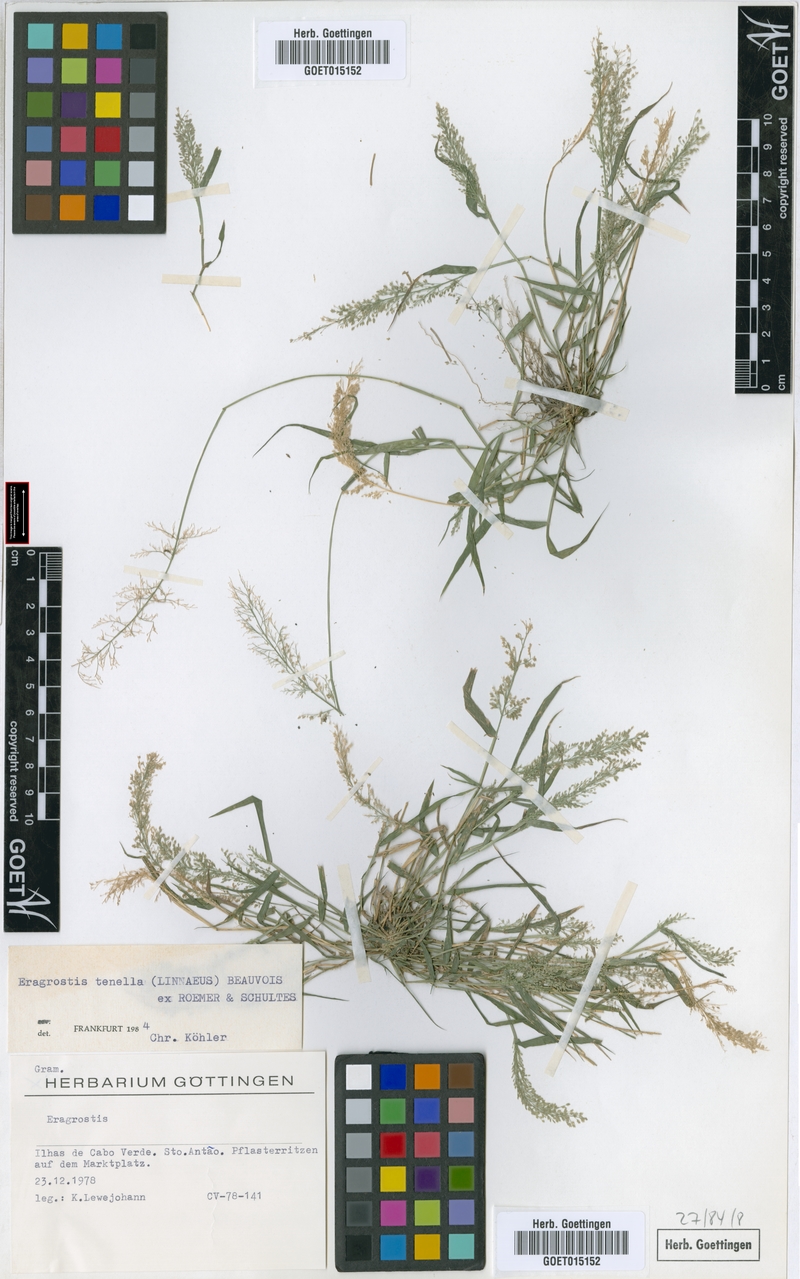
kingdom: Plantae
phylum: Tracheophyta
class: Liliopsida
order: Poales
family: Poaceae
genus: Eragrostis
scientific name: Eragrostis tenella
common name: Japanese lovegrass
